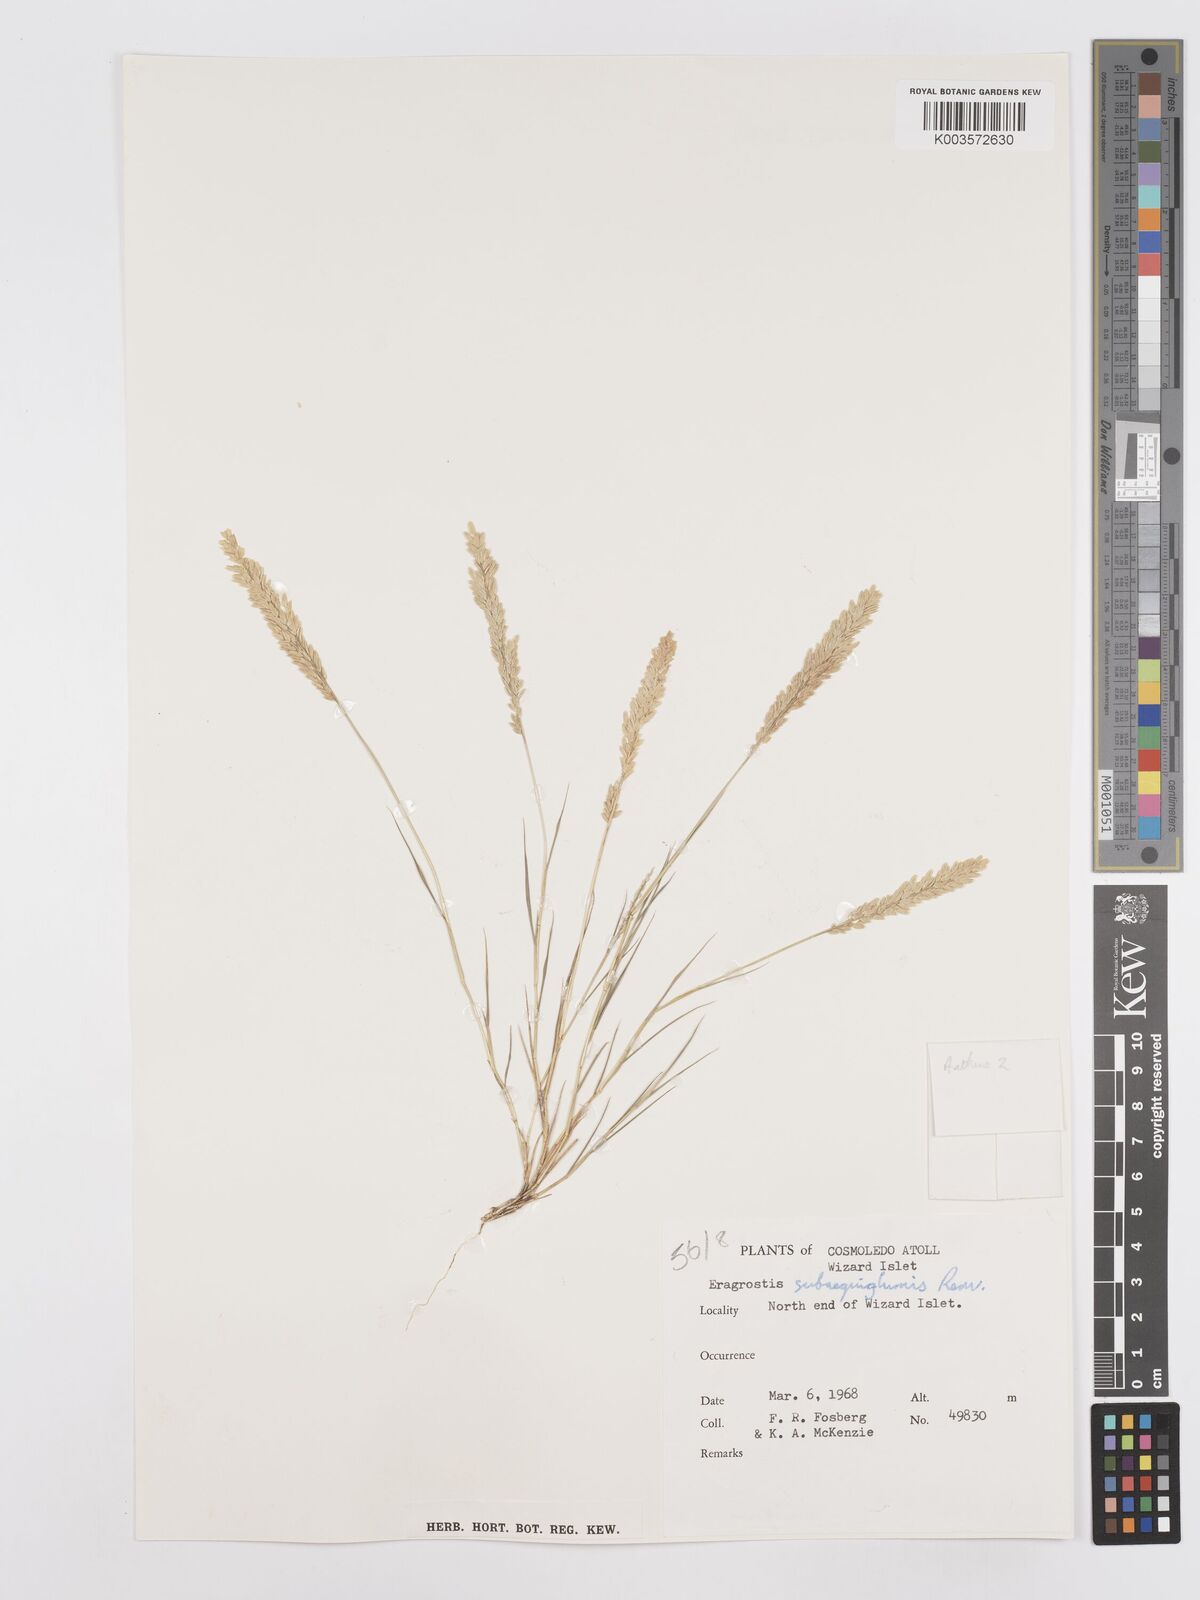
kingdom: Plantae
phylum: Tracheophyta
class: Liliopsida
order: Poales
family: Poaceae
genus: Eragrostis
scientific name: Eragrostis subaequiglumis
